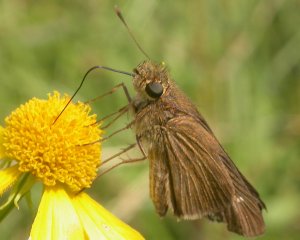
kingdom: Animalia
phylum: Arthropoda
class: Insecta
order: Lepidoptera
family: Hesperiidae
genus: Panoquina
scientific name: Panoquina ocola
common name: Ocola Skipper
